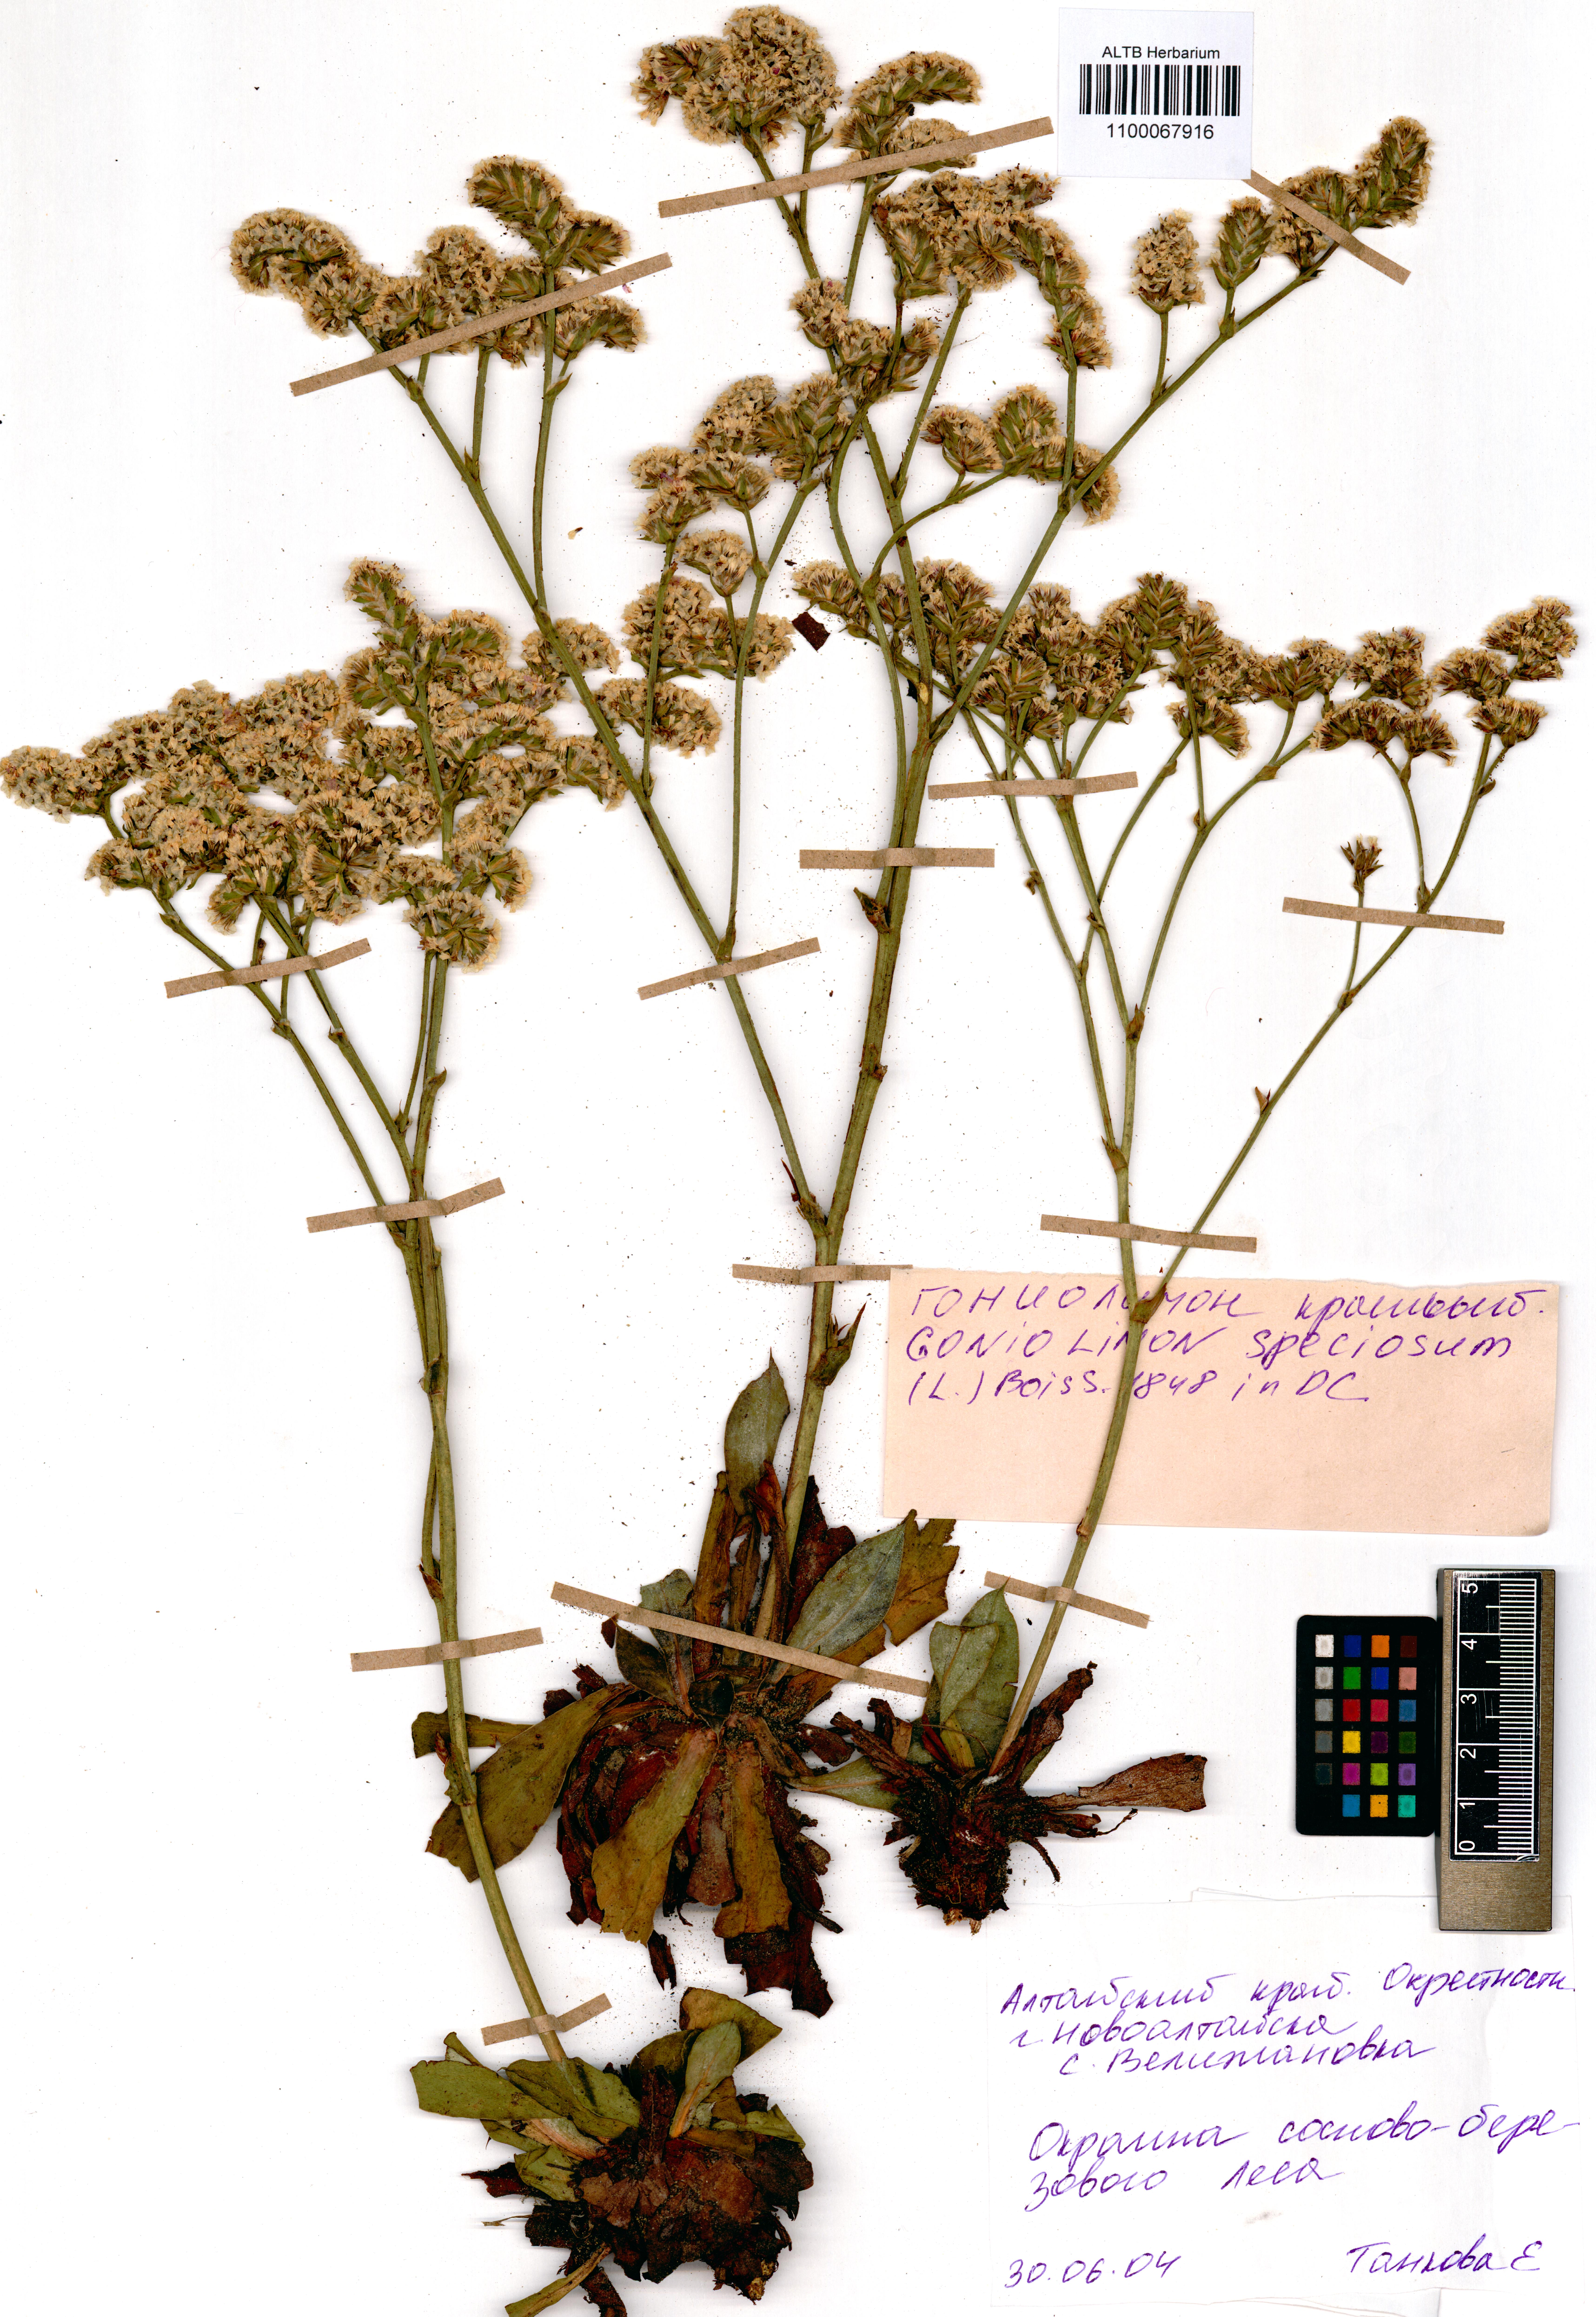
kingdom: Plantae
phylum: Tracheophyta
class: Magnoliopsida
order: Caryophyllales
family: Plumbaginaceae
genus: Goniolimon
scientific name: Goniolimon speciosum
